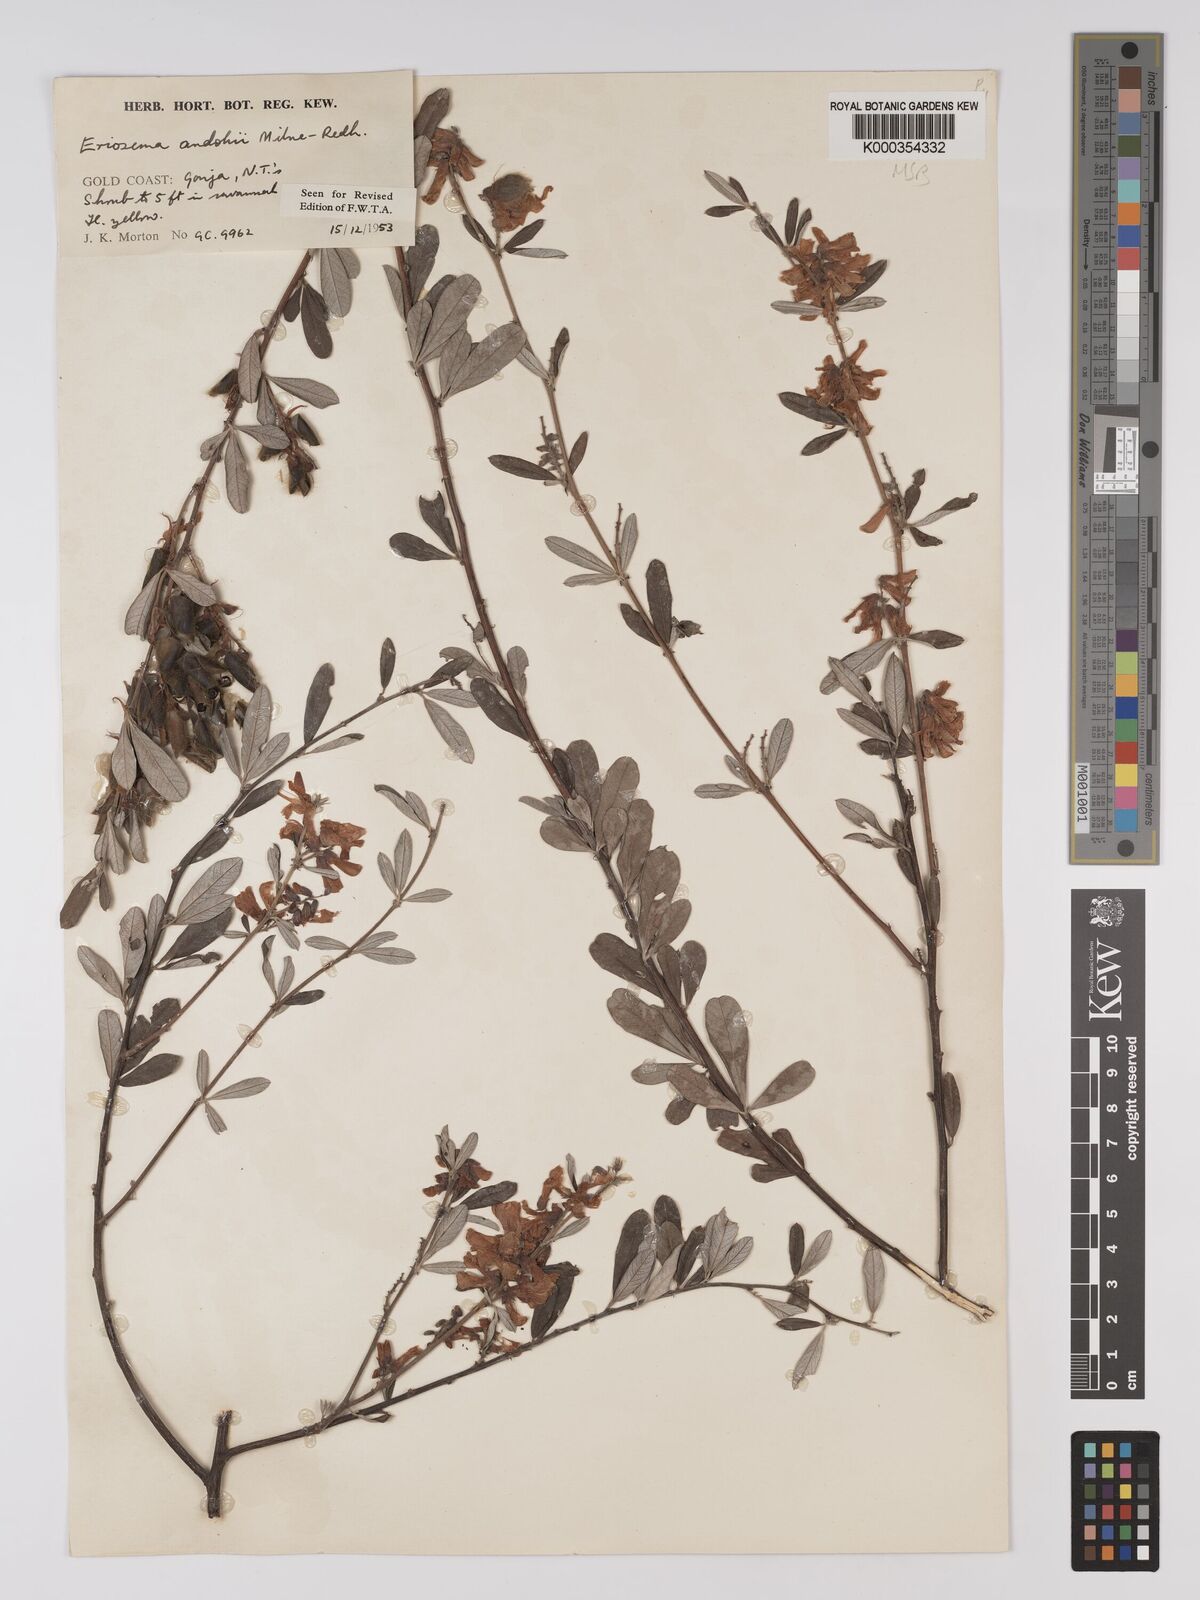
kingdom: Plantae
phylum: Tracheophyta
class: Magnoliopsida
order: Fabales
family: Fabaceae
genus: Eriosema
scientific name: Eriosema andohii
